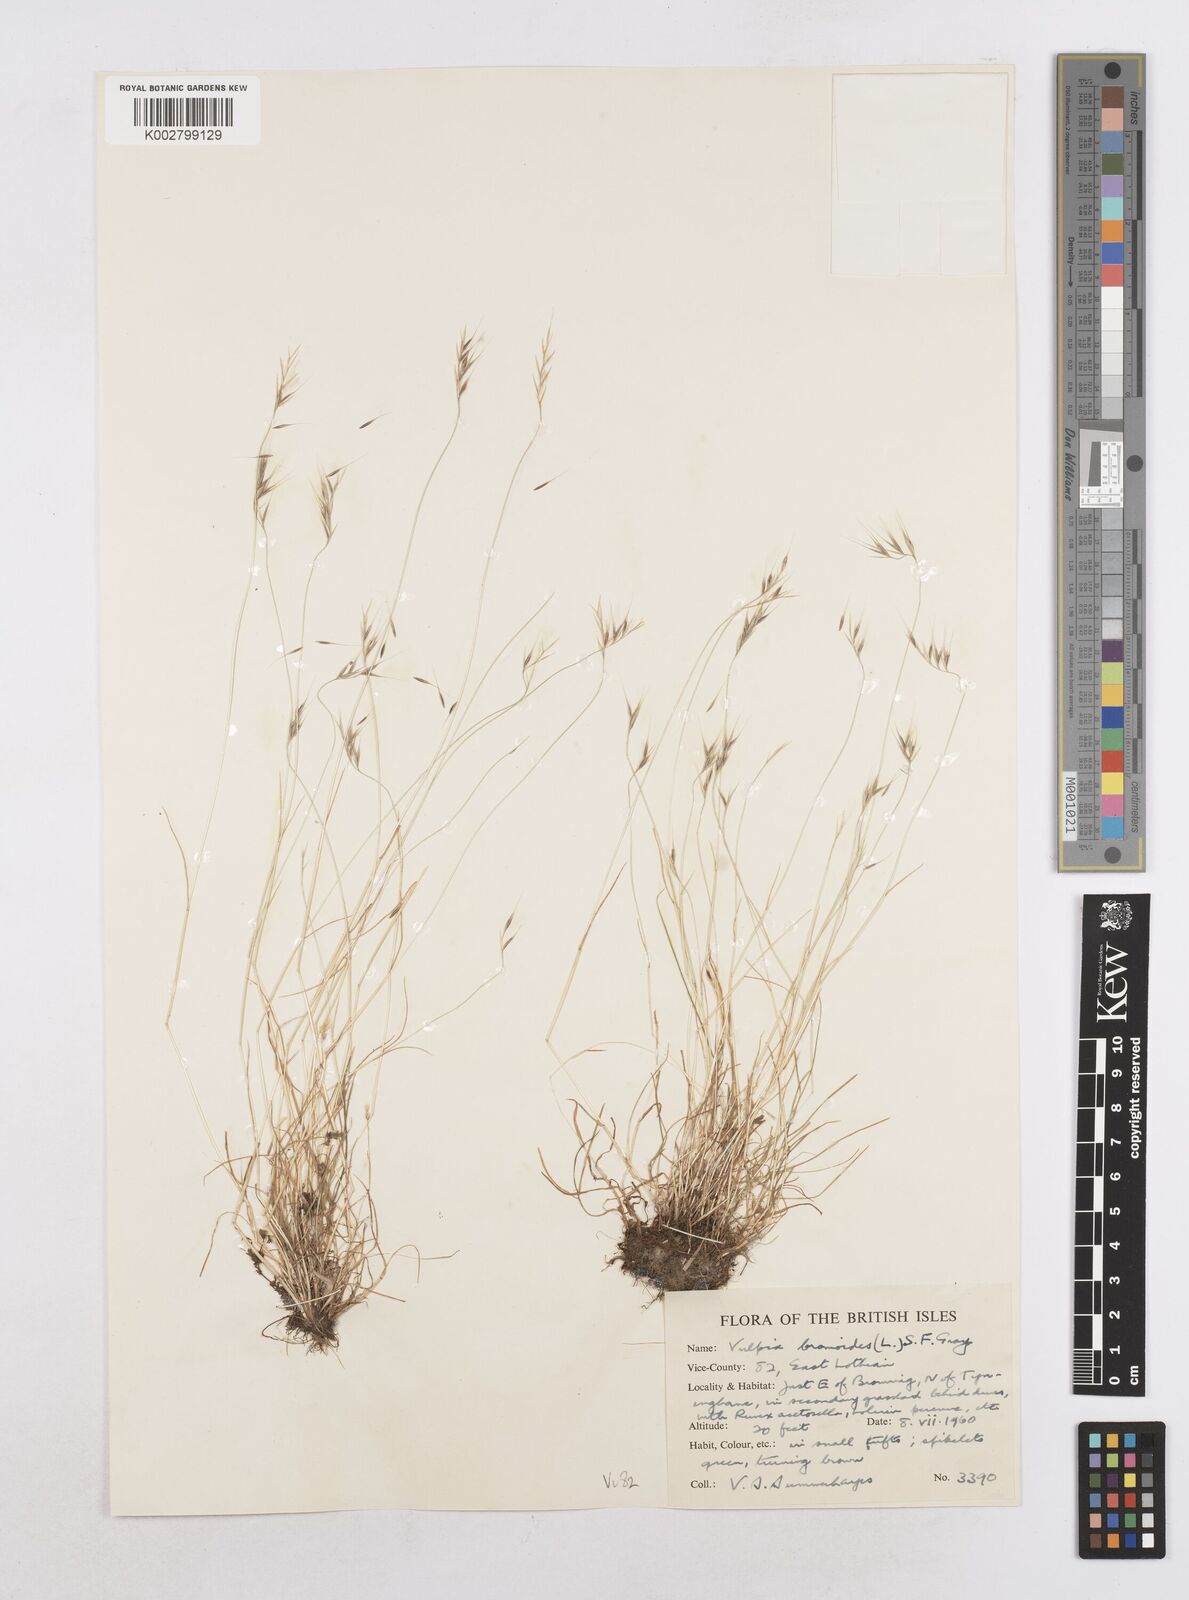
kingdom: Plantae
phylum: Tracheophyta
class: Liliopsida
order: Poales
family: Poaceae
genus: Festuca
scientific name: Festuca bromoides
